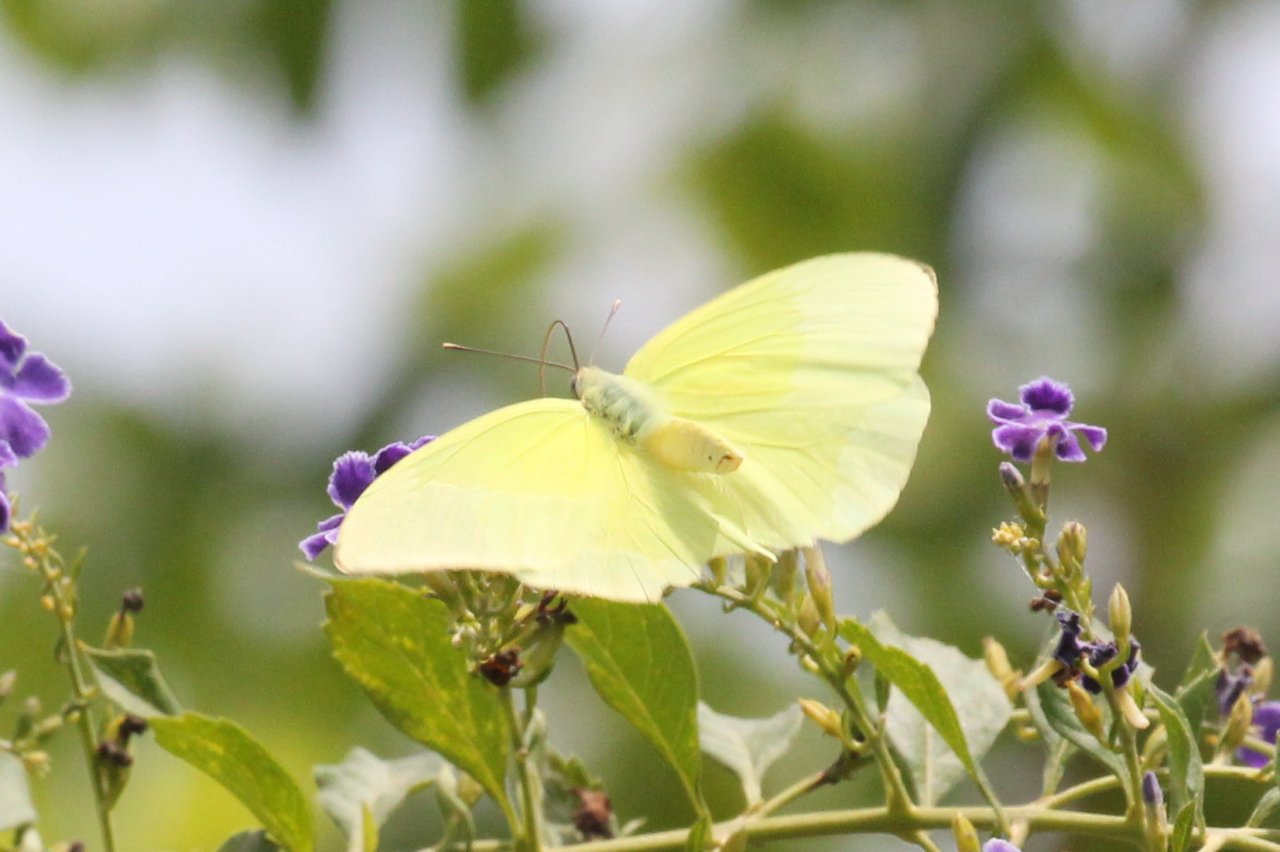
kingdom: Animalia
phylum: Arthropoda
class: Insecta
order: Lepidoptera
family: Pieridae
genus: Aphrissa
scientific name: Aphrissa statira
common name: Statira Sulphur
